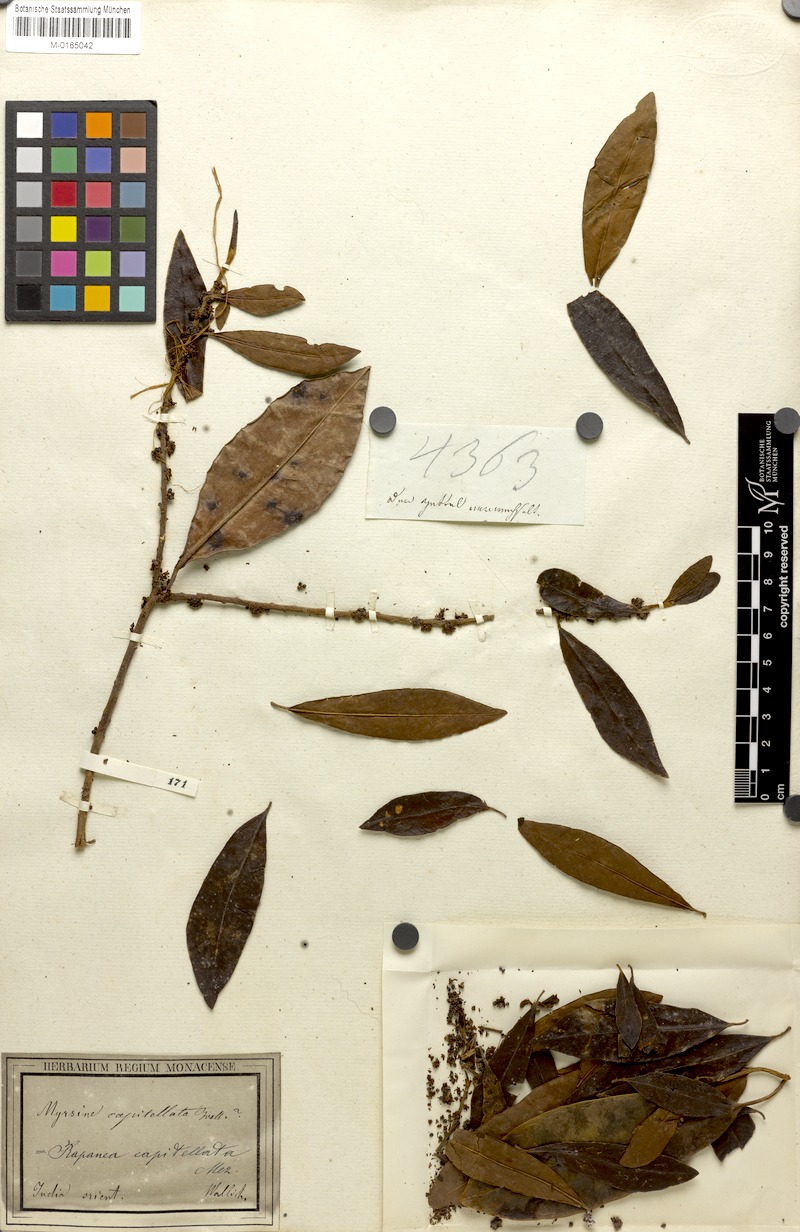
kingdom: Plantae
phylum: Tracheophyta
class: Magnoliopsida
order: Ericales
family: Primulaceae
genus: Myrsine
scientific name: Myrsine capitellata
